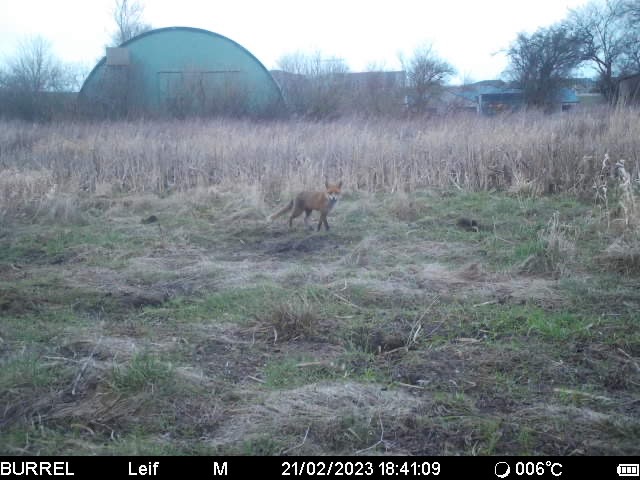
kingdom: Animalia
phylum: Chordata
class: Mammalia
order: Carnivora
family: Canidae
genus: Vulpes
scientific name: Vulpes vulpes
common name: Ræv
